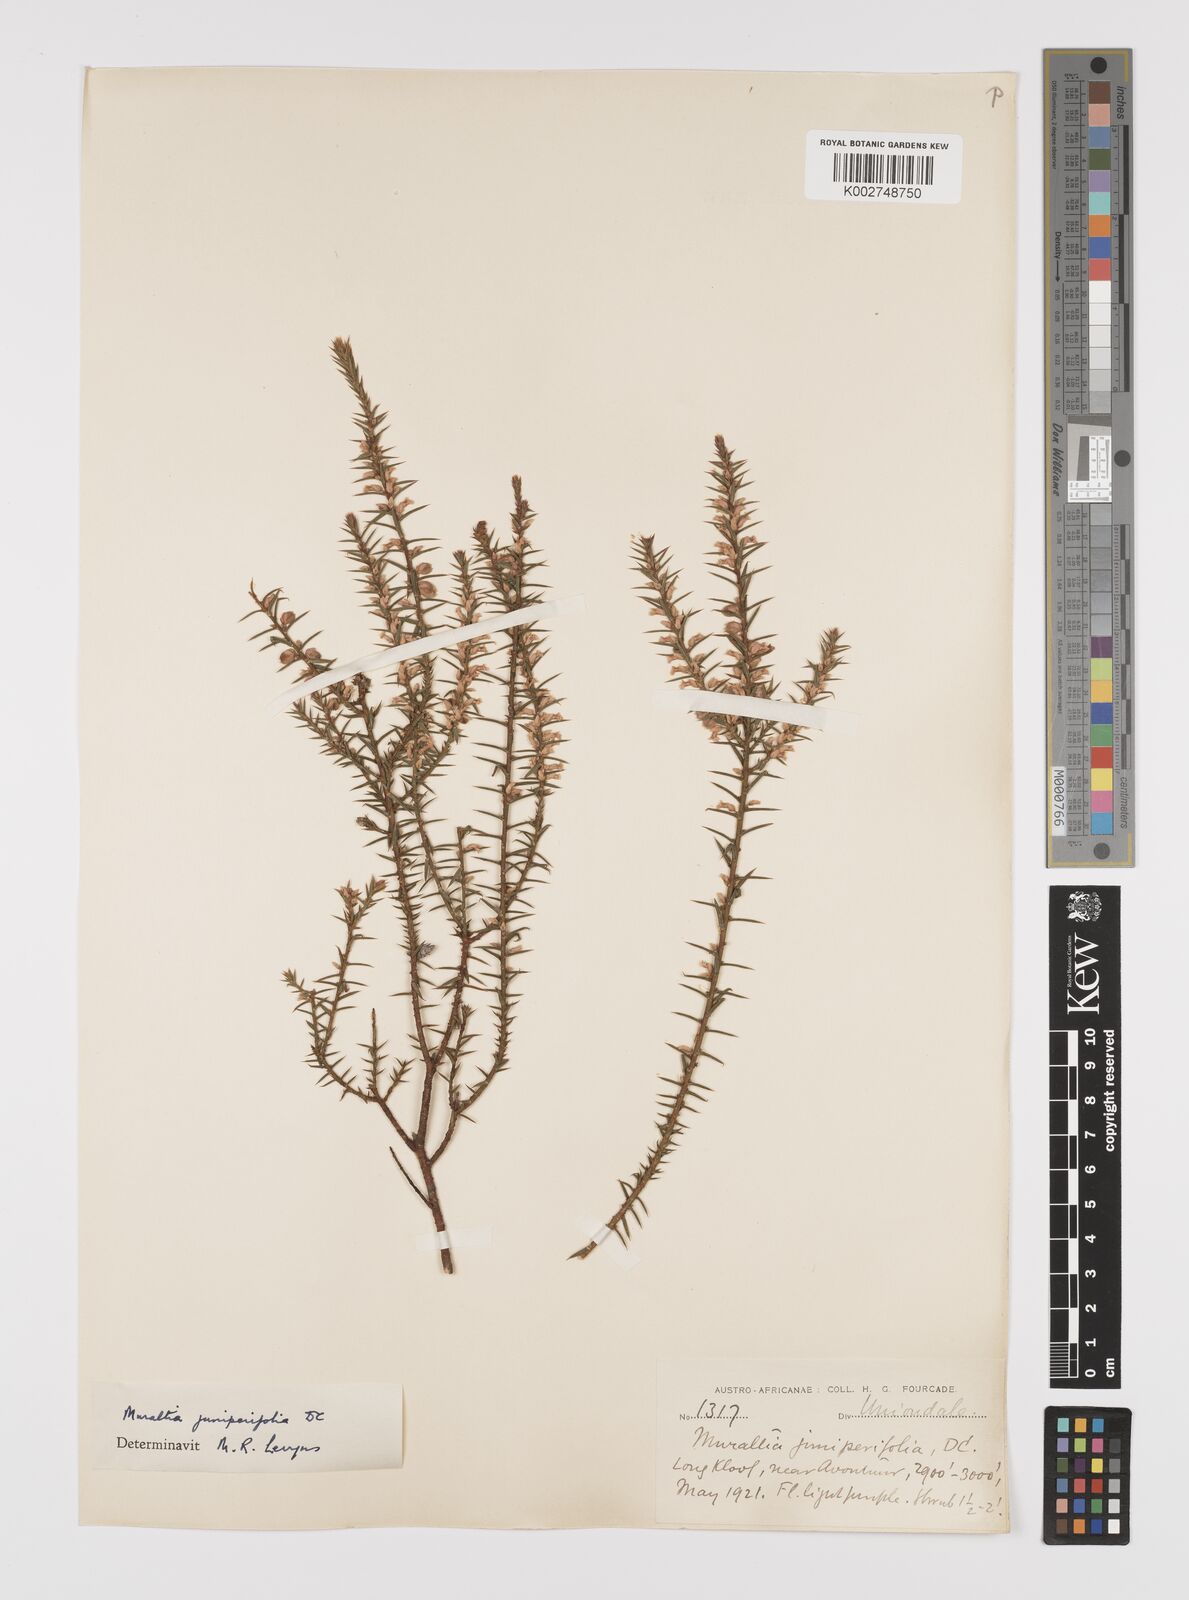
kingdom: Plantae
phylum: Tracheophyta
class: Magnoliopsida
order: Fabales
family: Polygalaceae
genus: Muraltia
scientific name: Muraltia juniperifolia
